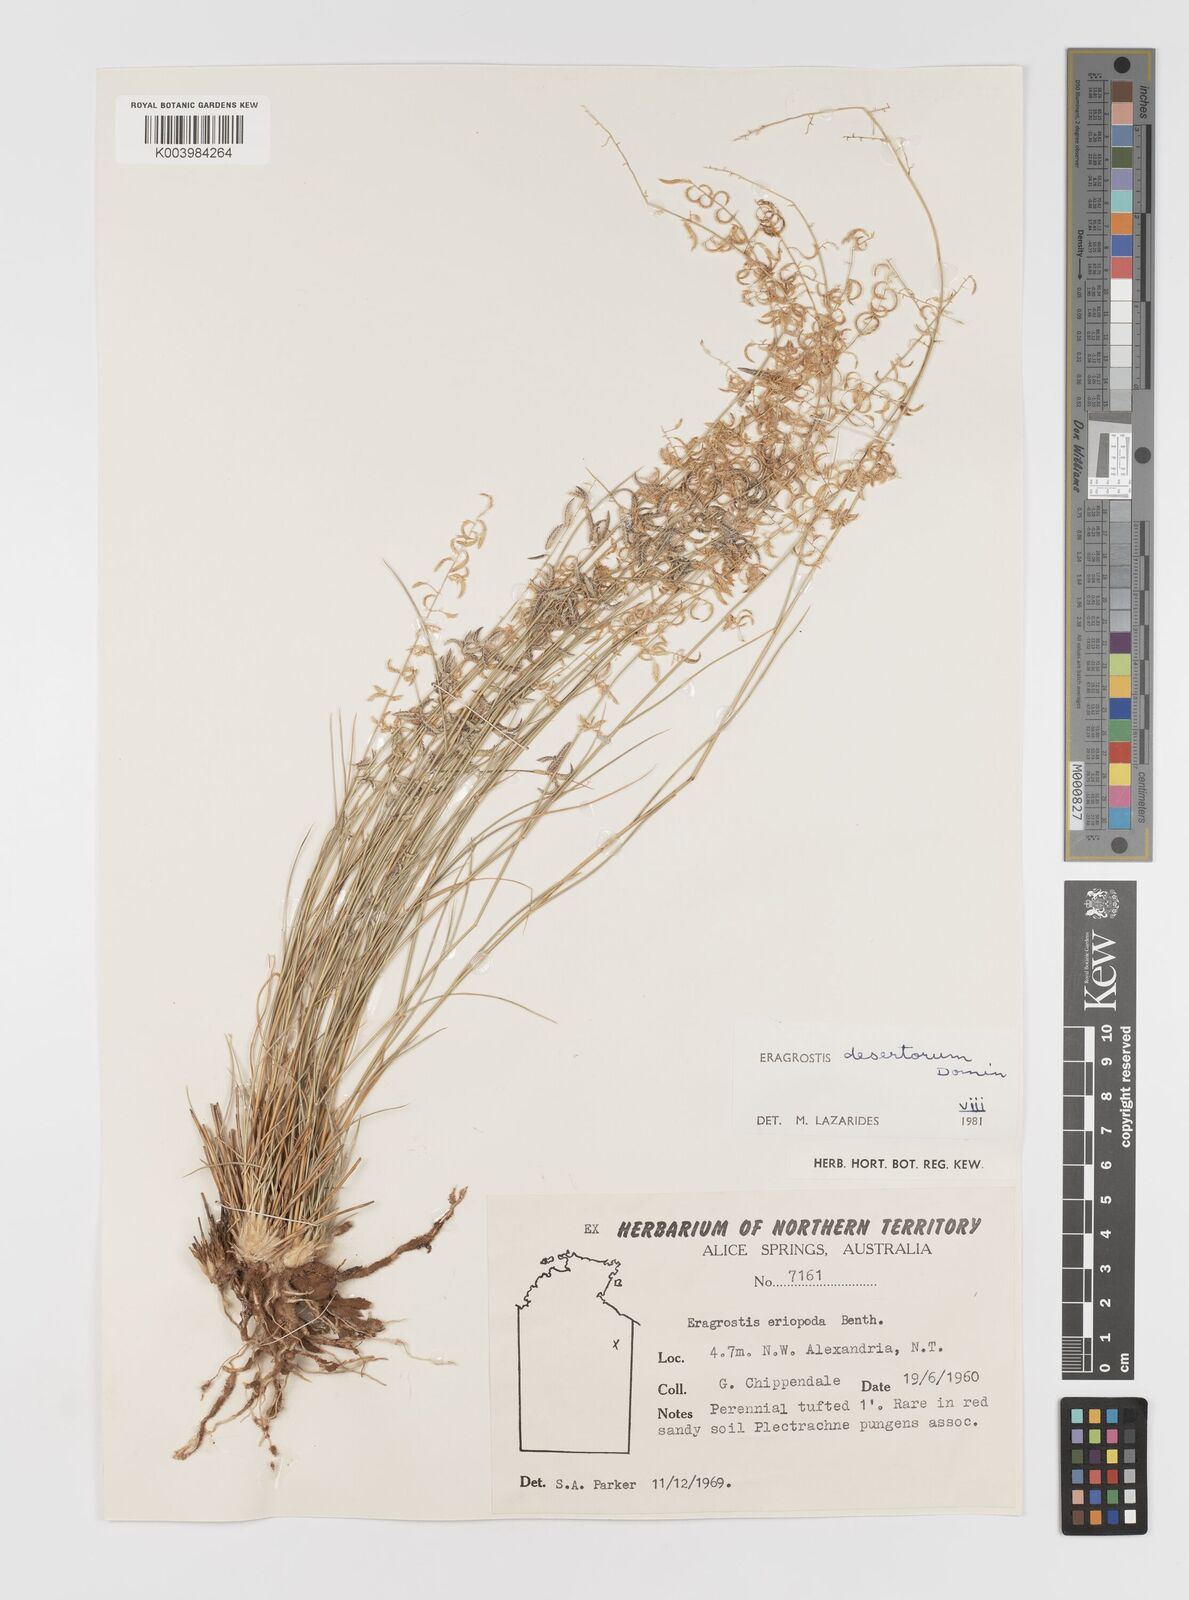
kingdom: Plantae
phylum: Tracheophyta
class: Liliopsida
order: Poales
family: Poaceae
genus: Eragrostis
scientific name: Eragrostis desertorum
